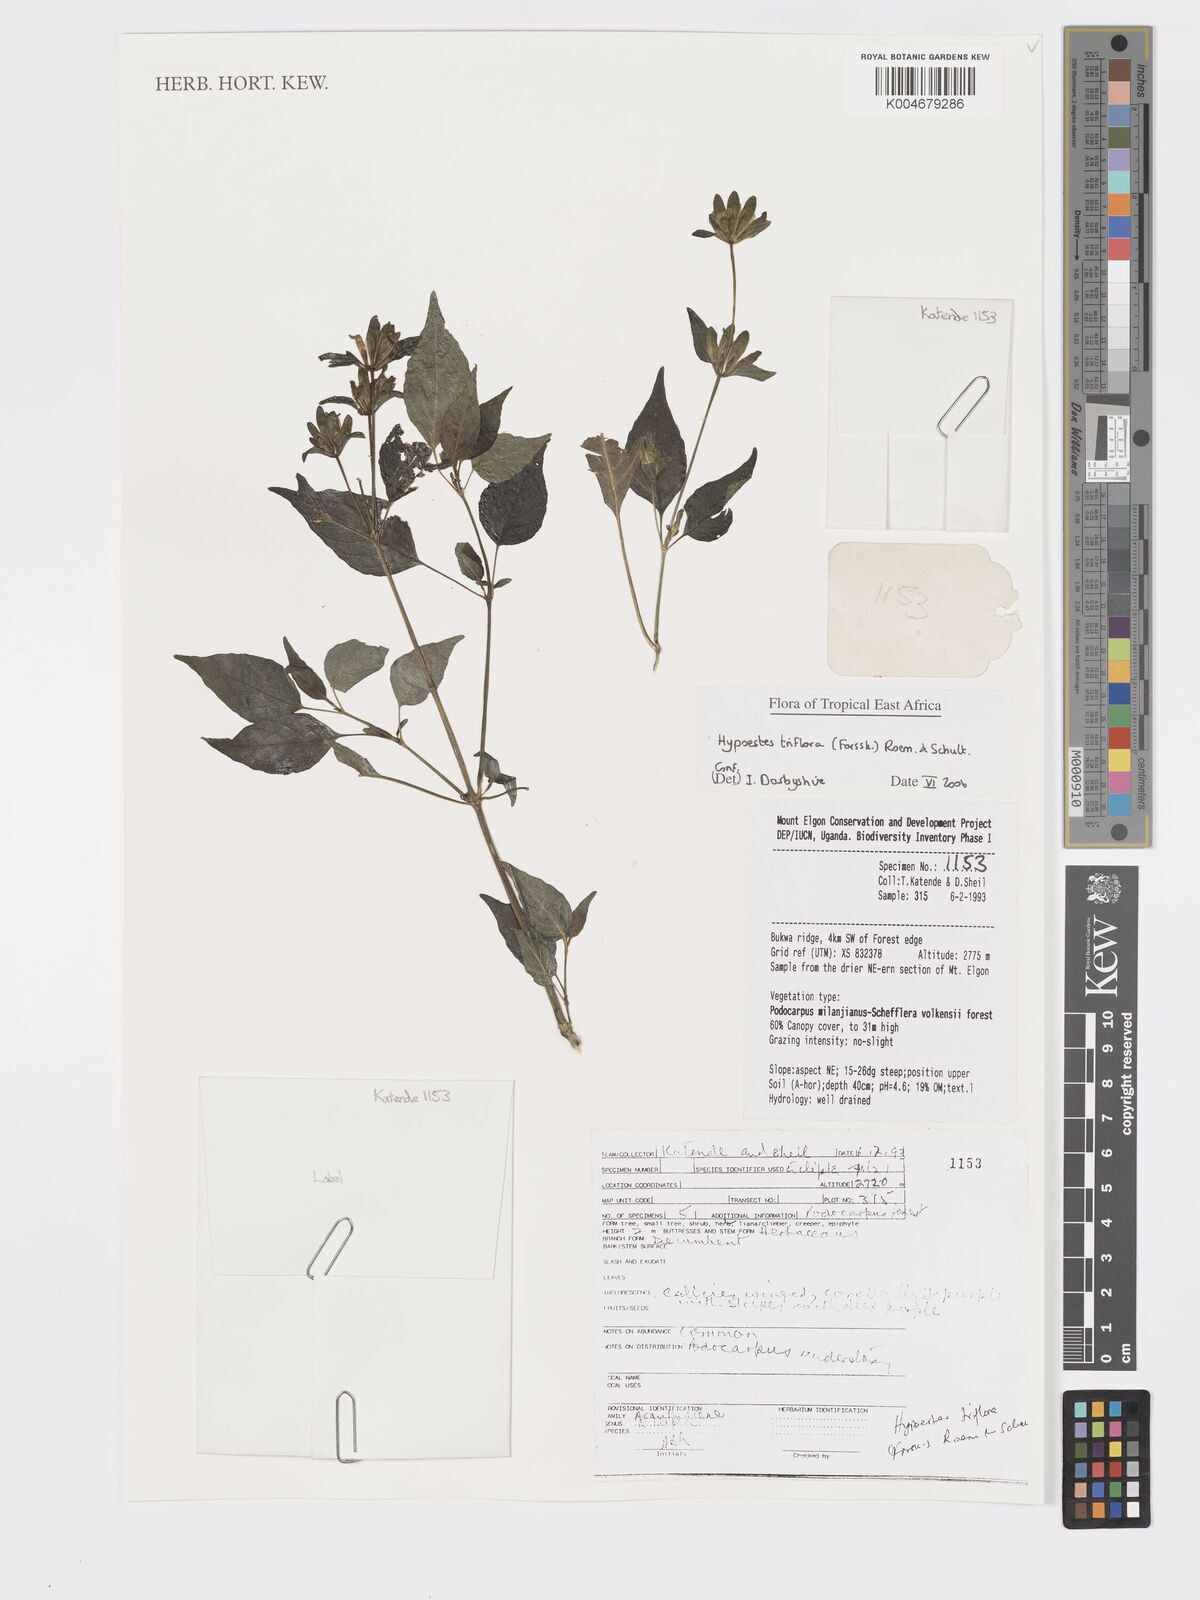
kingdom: Plantae
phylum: Tracheophyta
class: Magnoliopsida
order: Lamiales
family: Acanthaceae
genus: Hypoestes
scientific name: Hypoestes triflora
